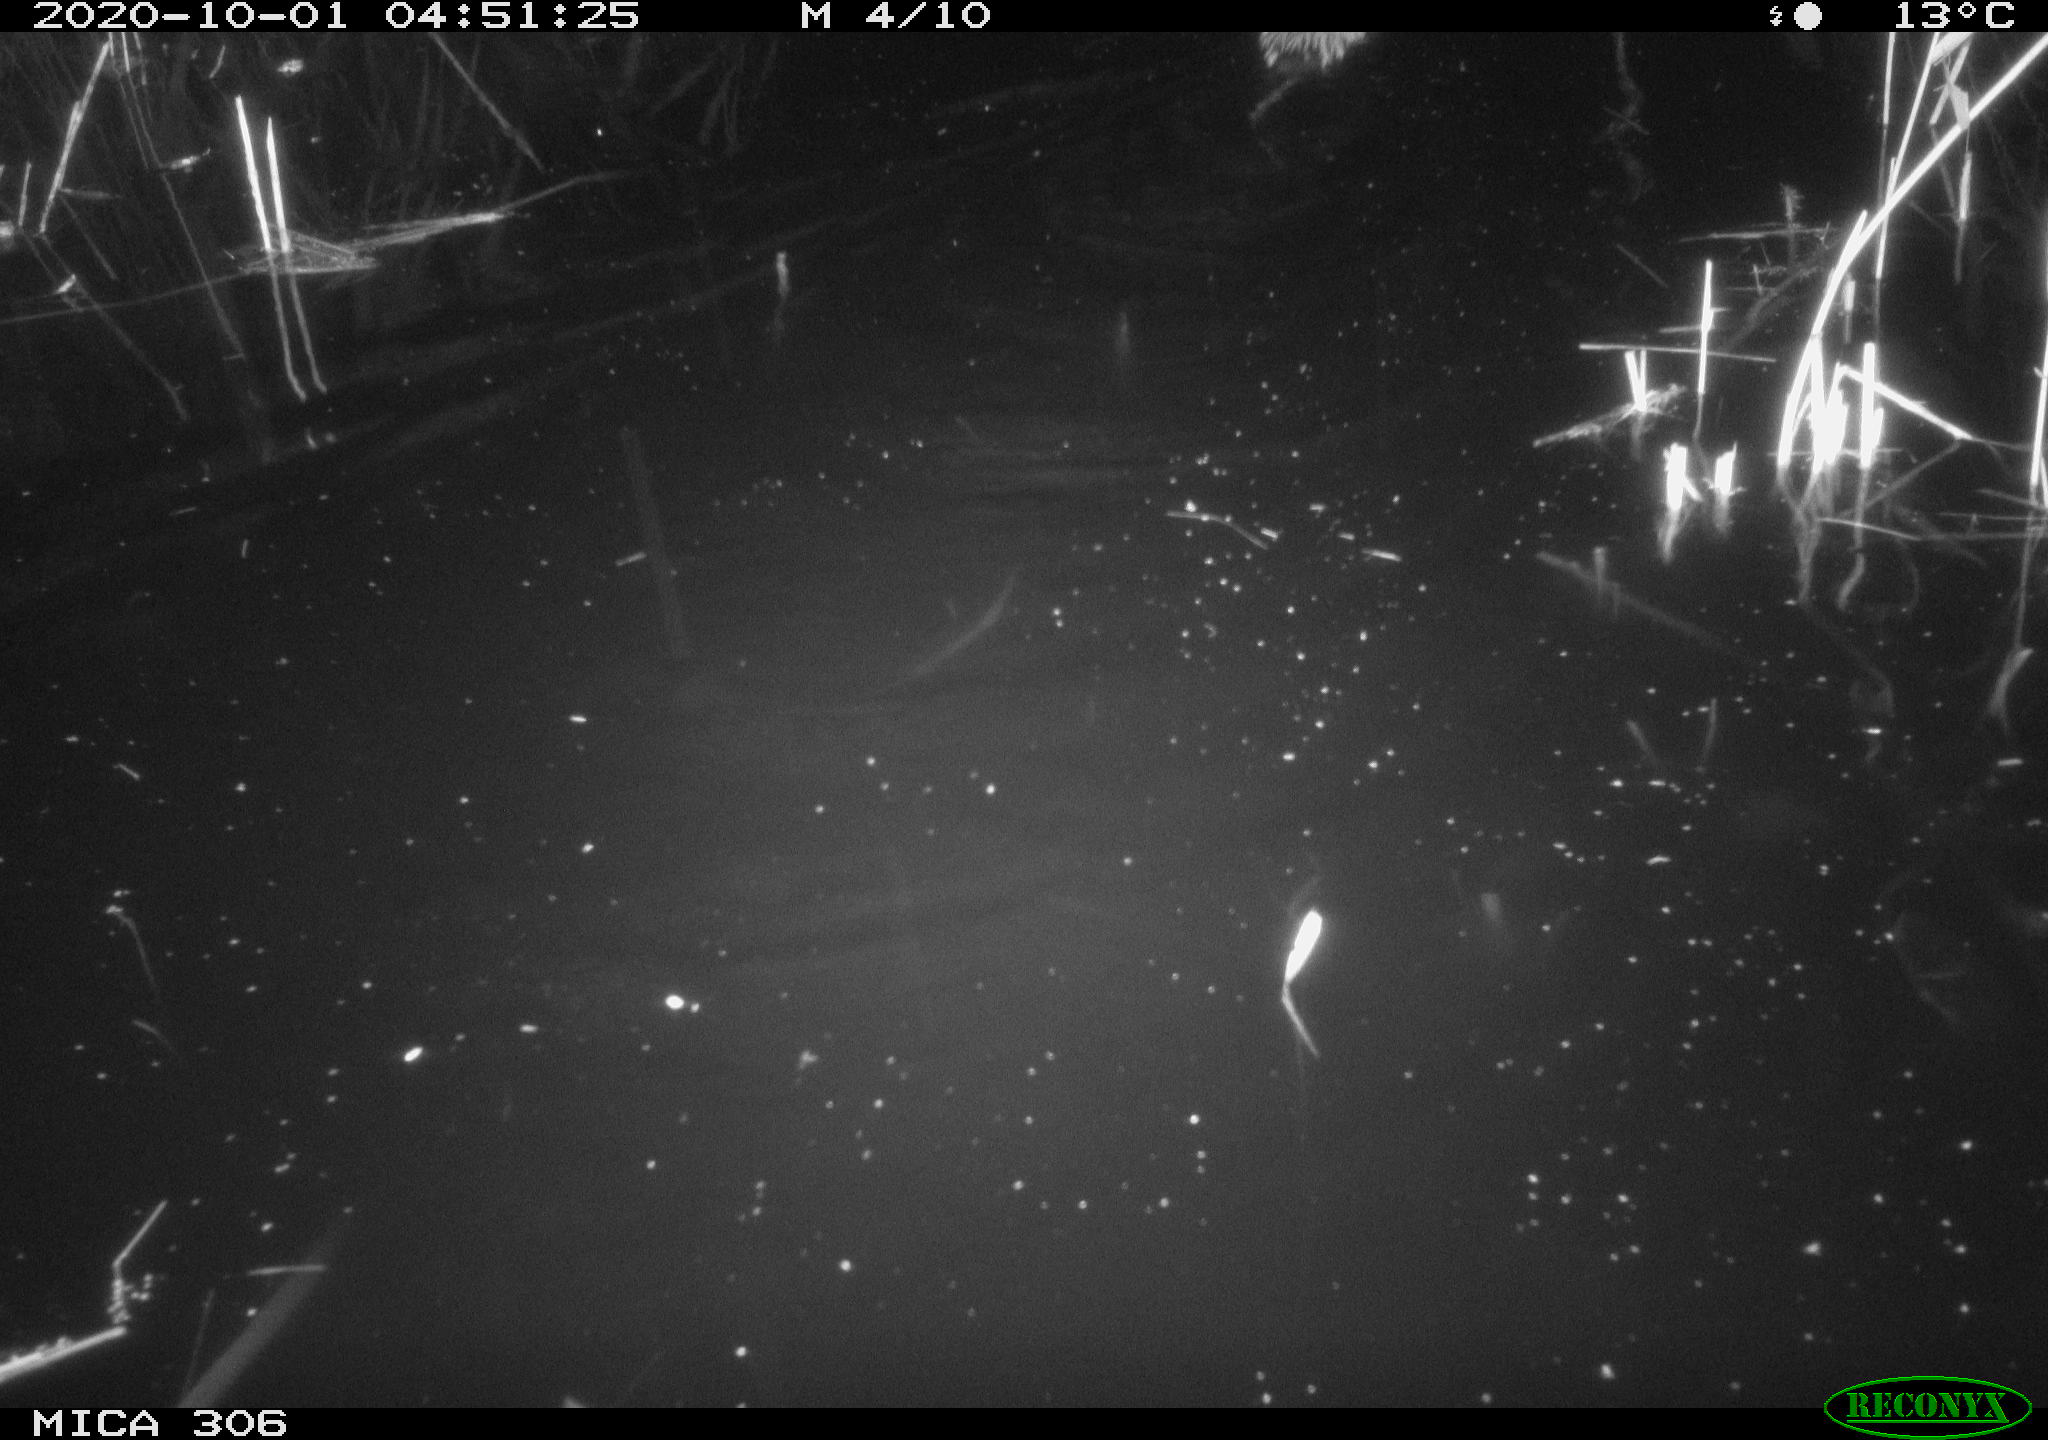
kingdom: Animalia
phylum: Chordata
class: Mammalia
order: Rodentia
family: Cricetidae
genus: Ondatra
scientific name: Ondatra zibethicus
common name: Muskrat
